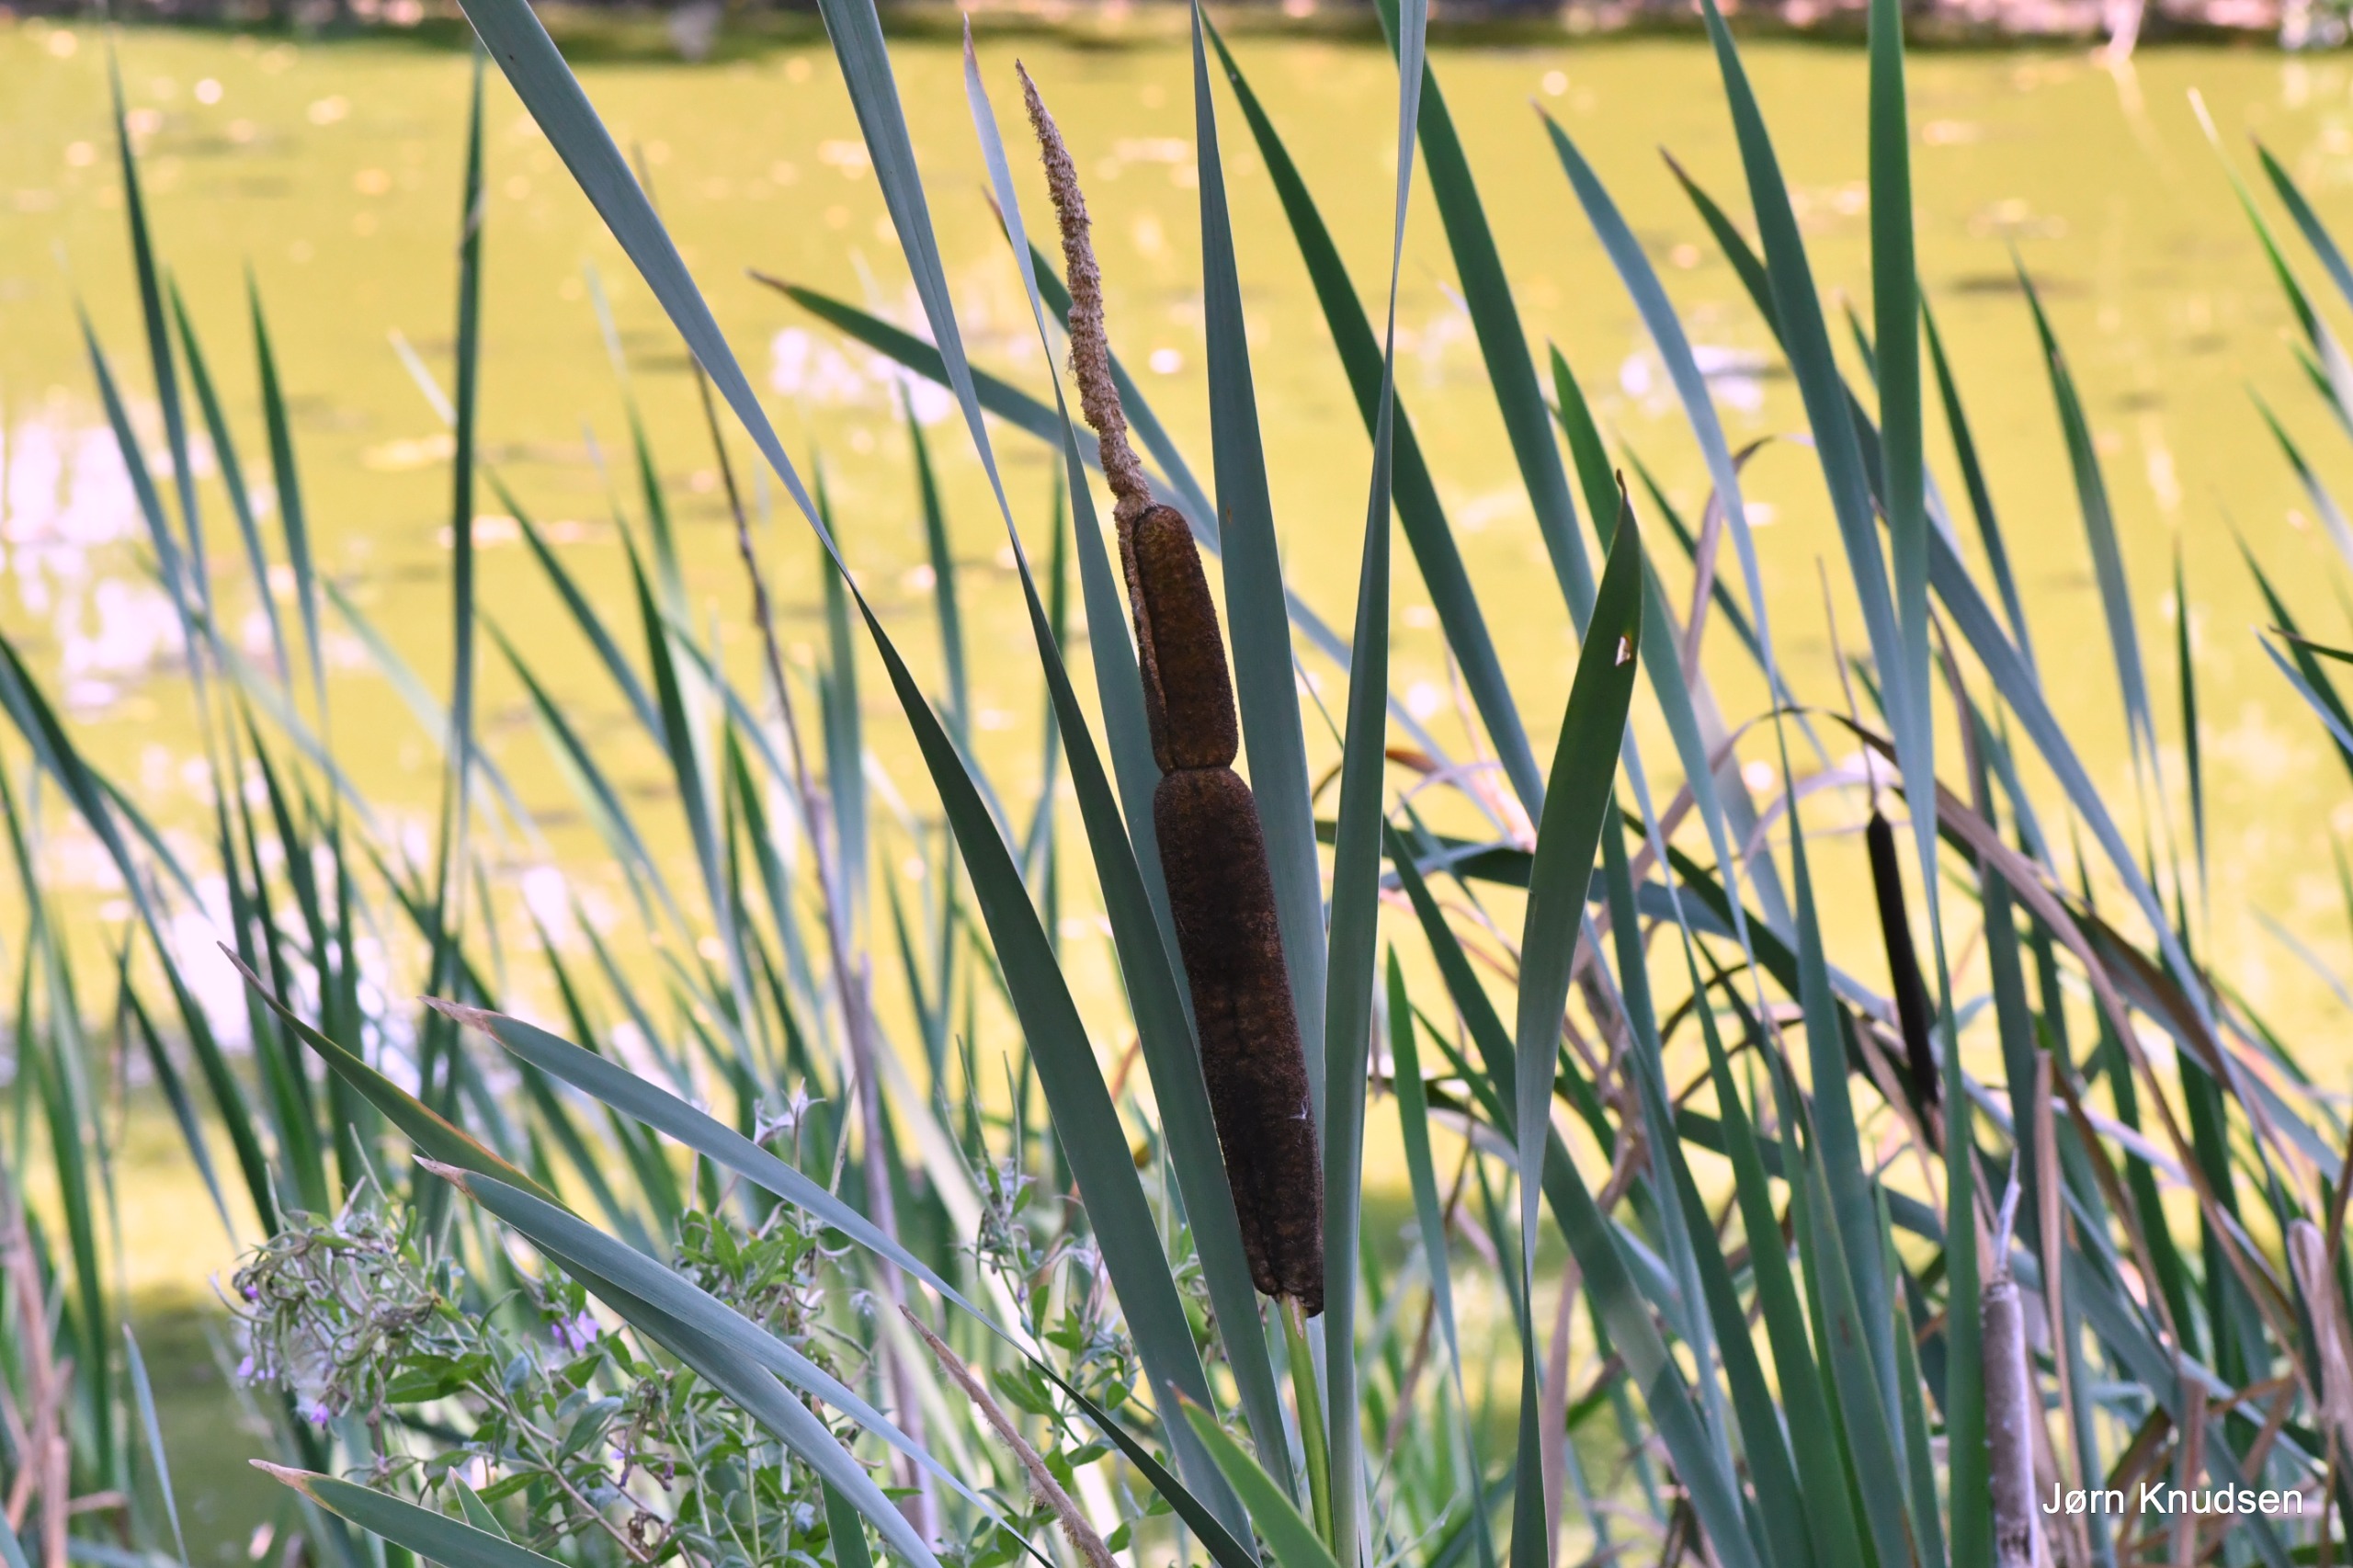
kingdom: Plantae
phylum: Tracheophyta
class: Liliopsida
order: Poales
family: Typhaceae
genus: Typha
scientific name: Typha latifolia
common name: Bredbladet dunhammer
